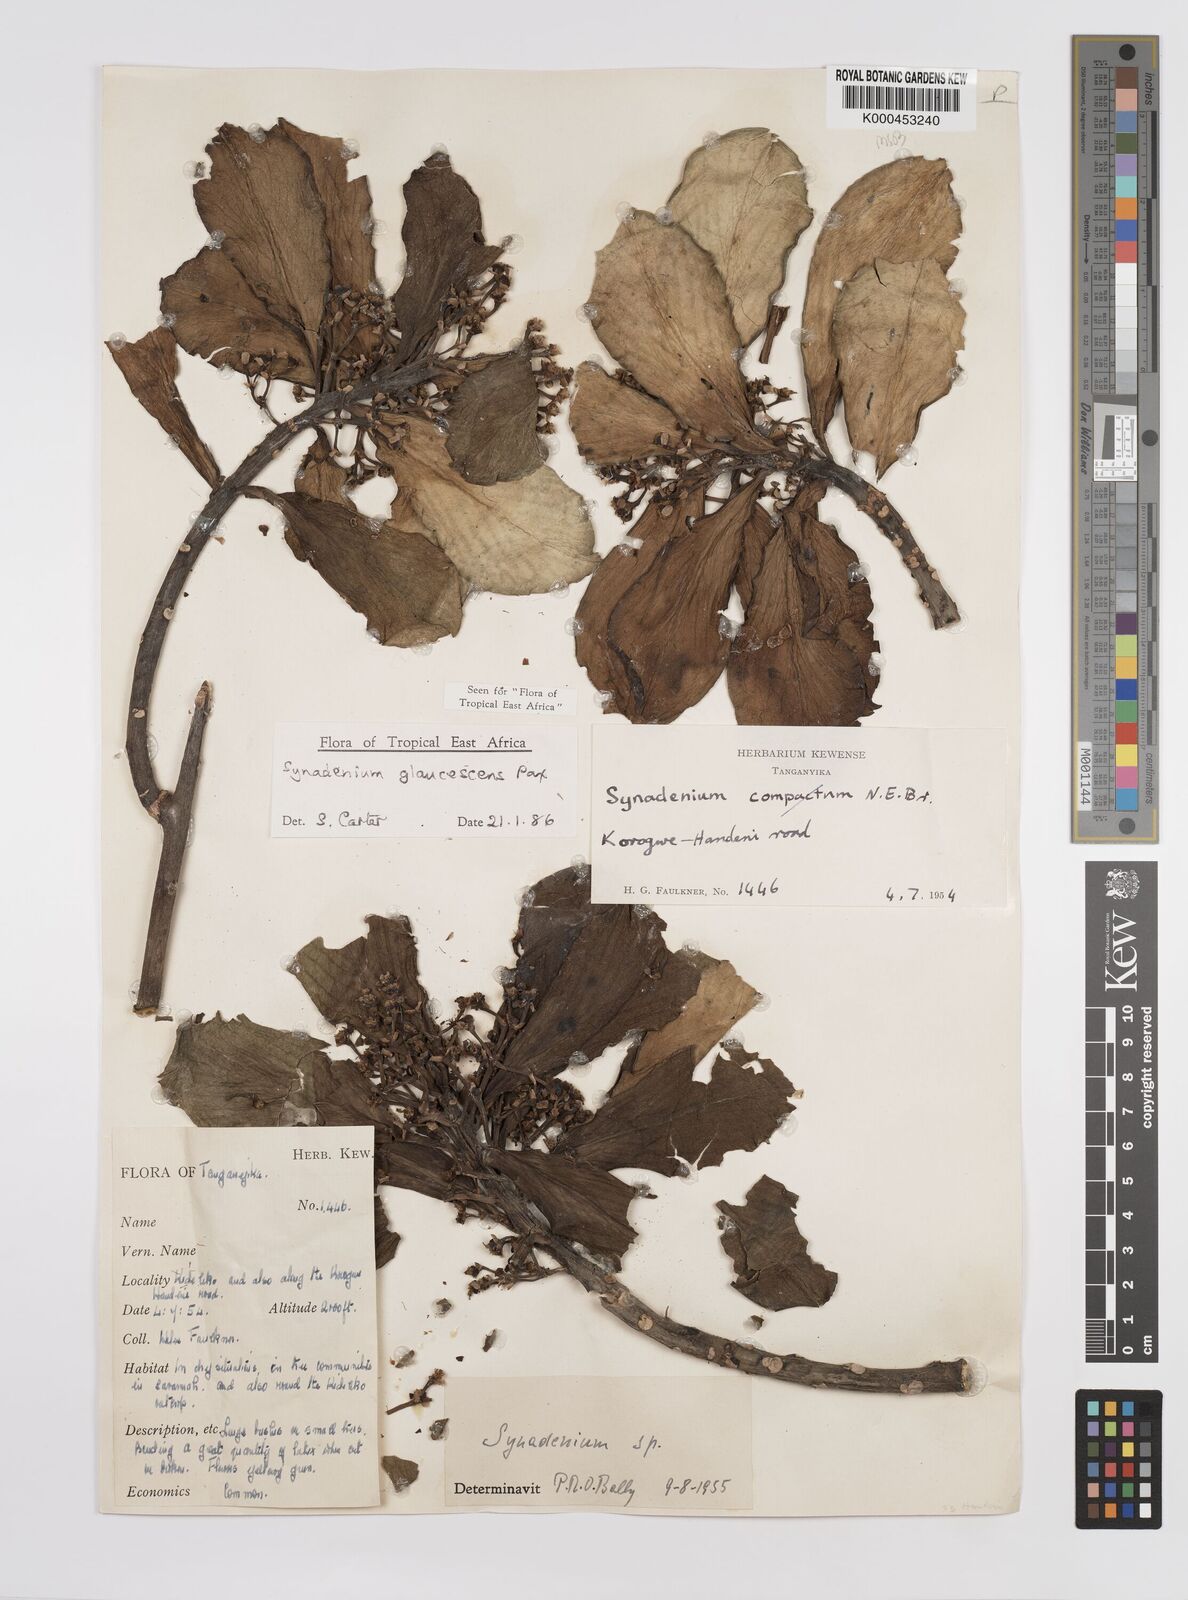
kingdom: Plantae
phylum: Tracheophyta
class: Magnoliopsida
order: Malpighiales
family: Euphorbiaceae
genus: Euphorbia
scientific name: Euphorbia neoglaucescens
